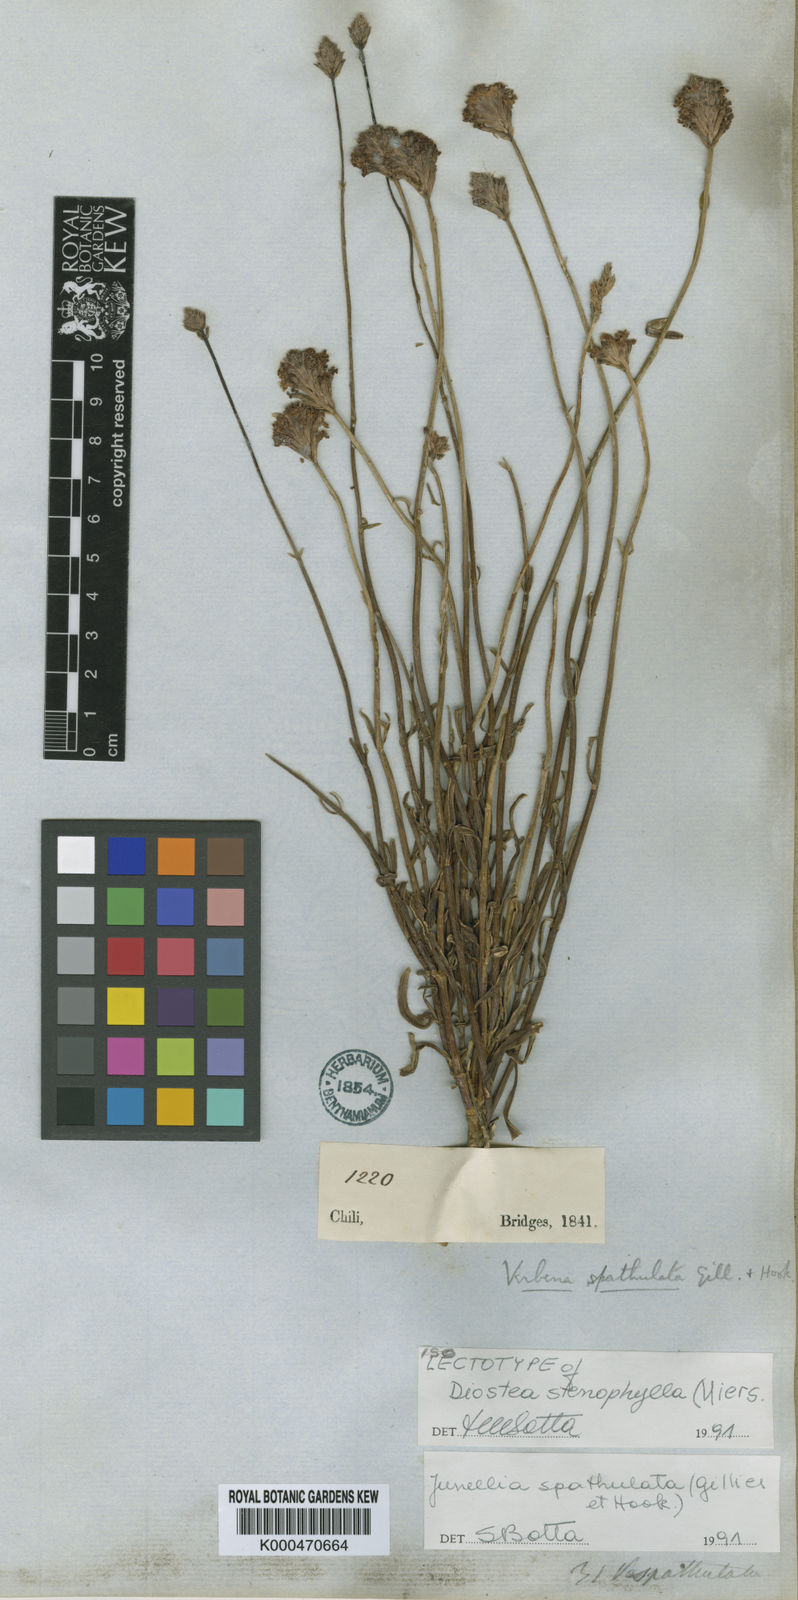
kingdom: Plantae
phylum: Tracheophyta
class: Magnoliopsida
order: Lamiales
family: Verbenaceae
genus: Junellia
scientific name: Junellia spathulata
